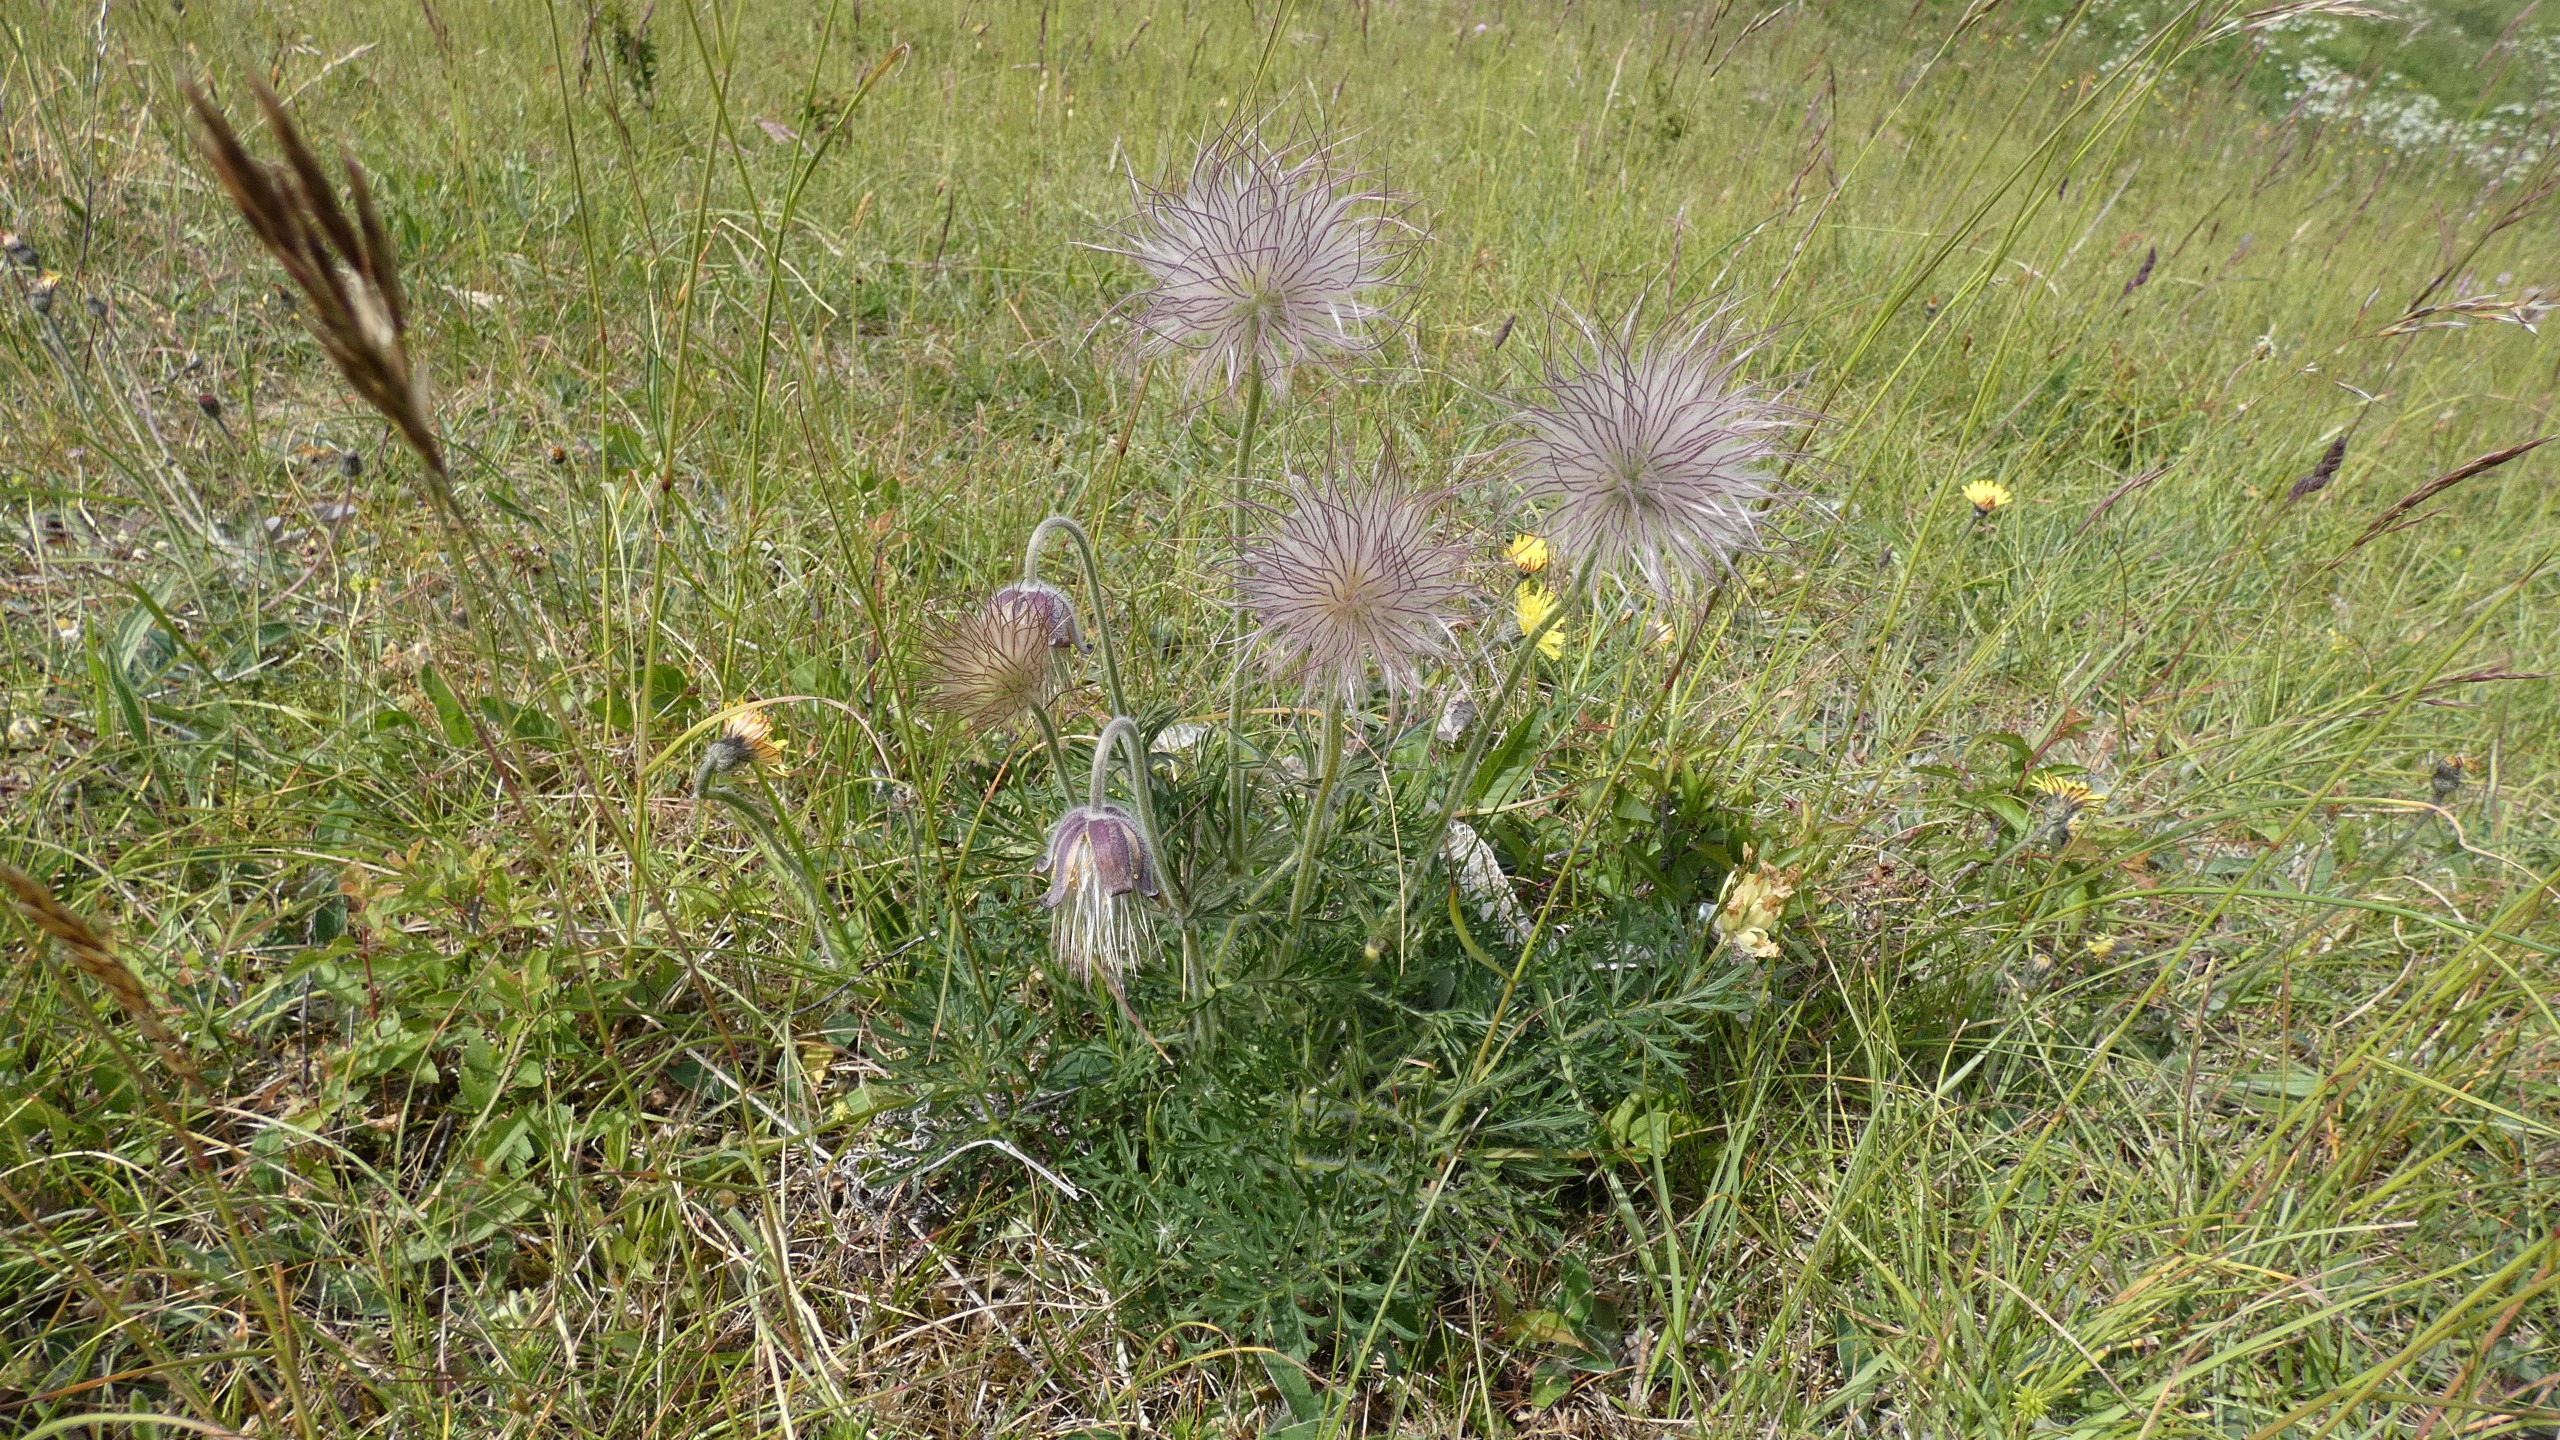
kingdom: Plantae
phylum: Tracheophyta
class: Magnoliopsida
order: Ranunculales
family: Ranunculaceae
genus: Pulsatilla
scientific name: Pulsatilla pratensis
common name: Nikkende kobjælde
